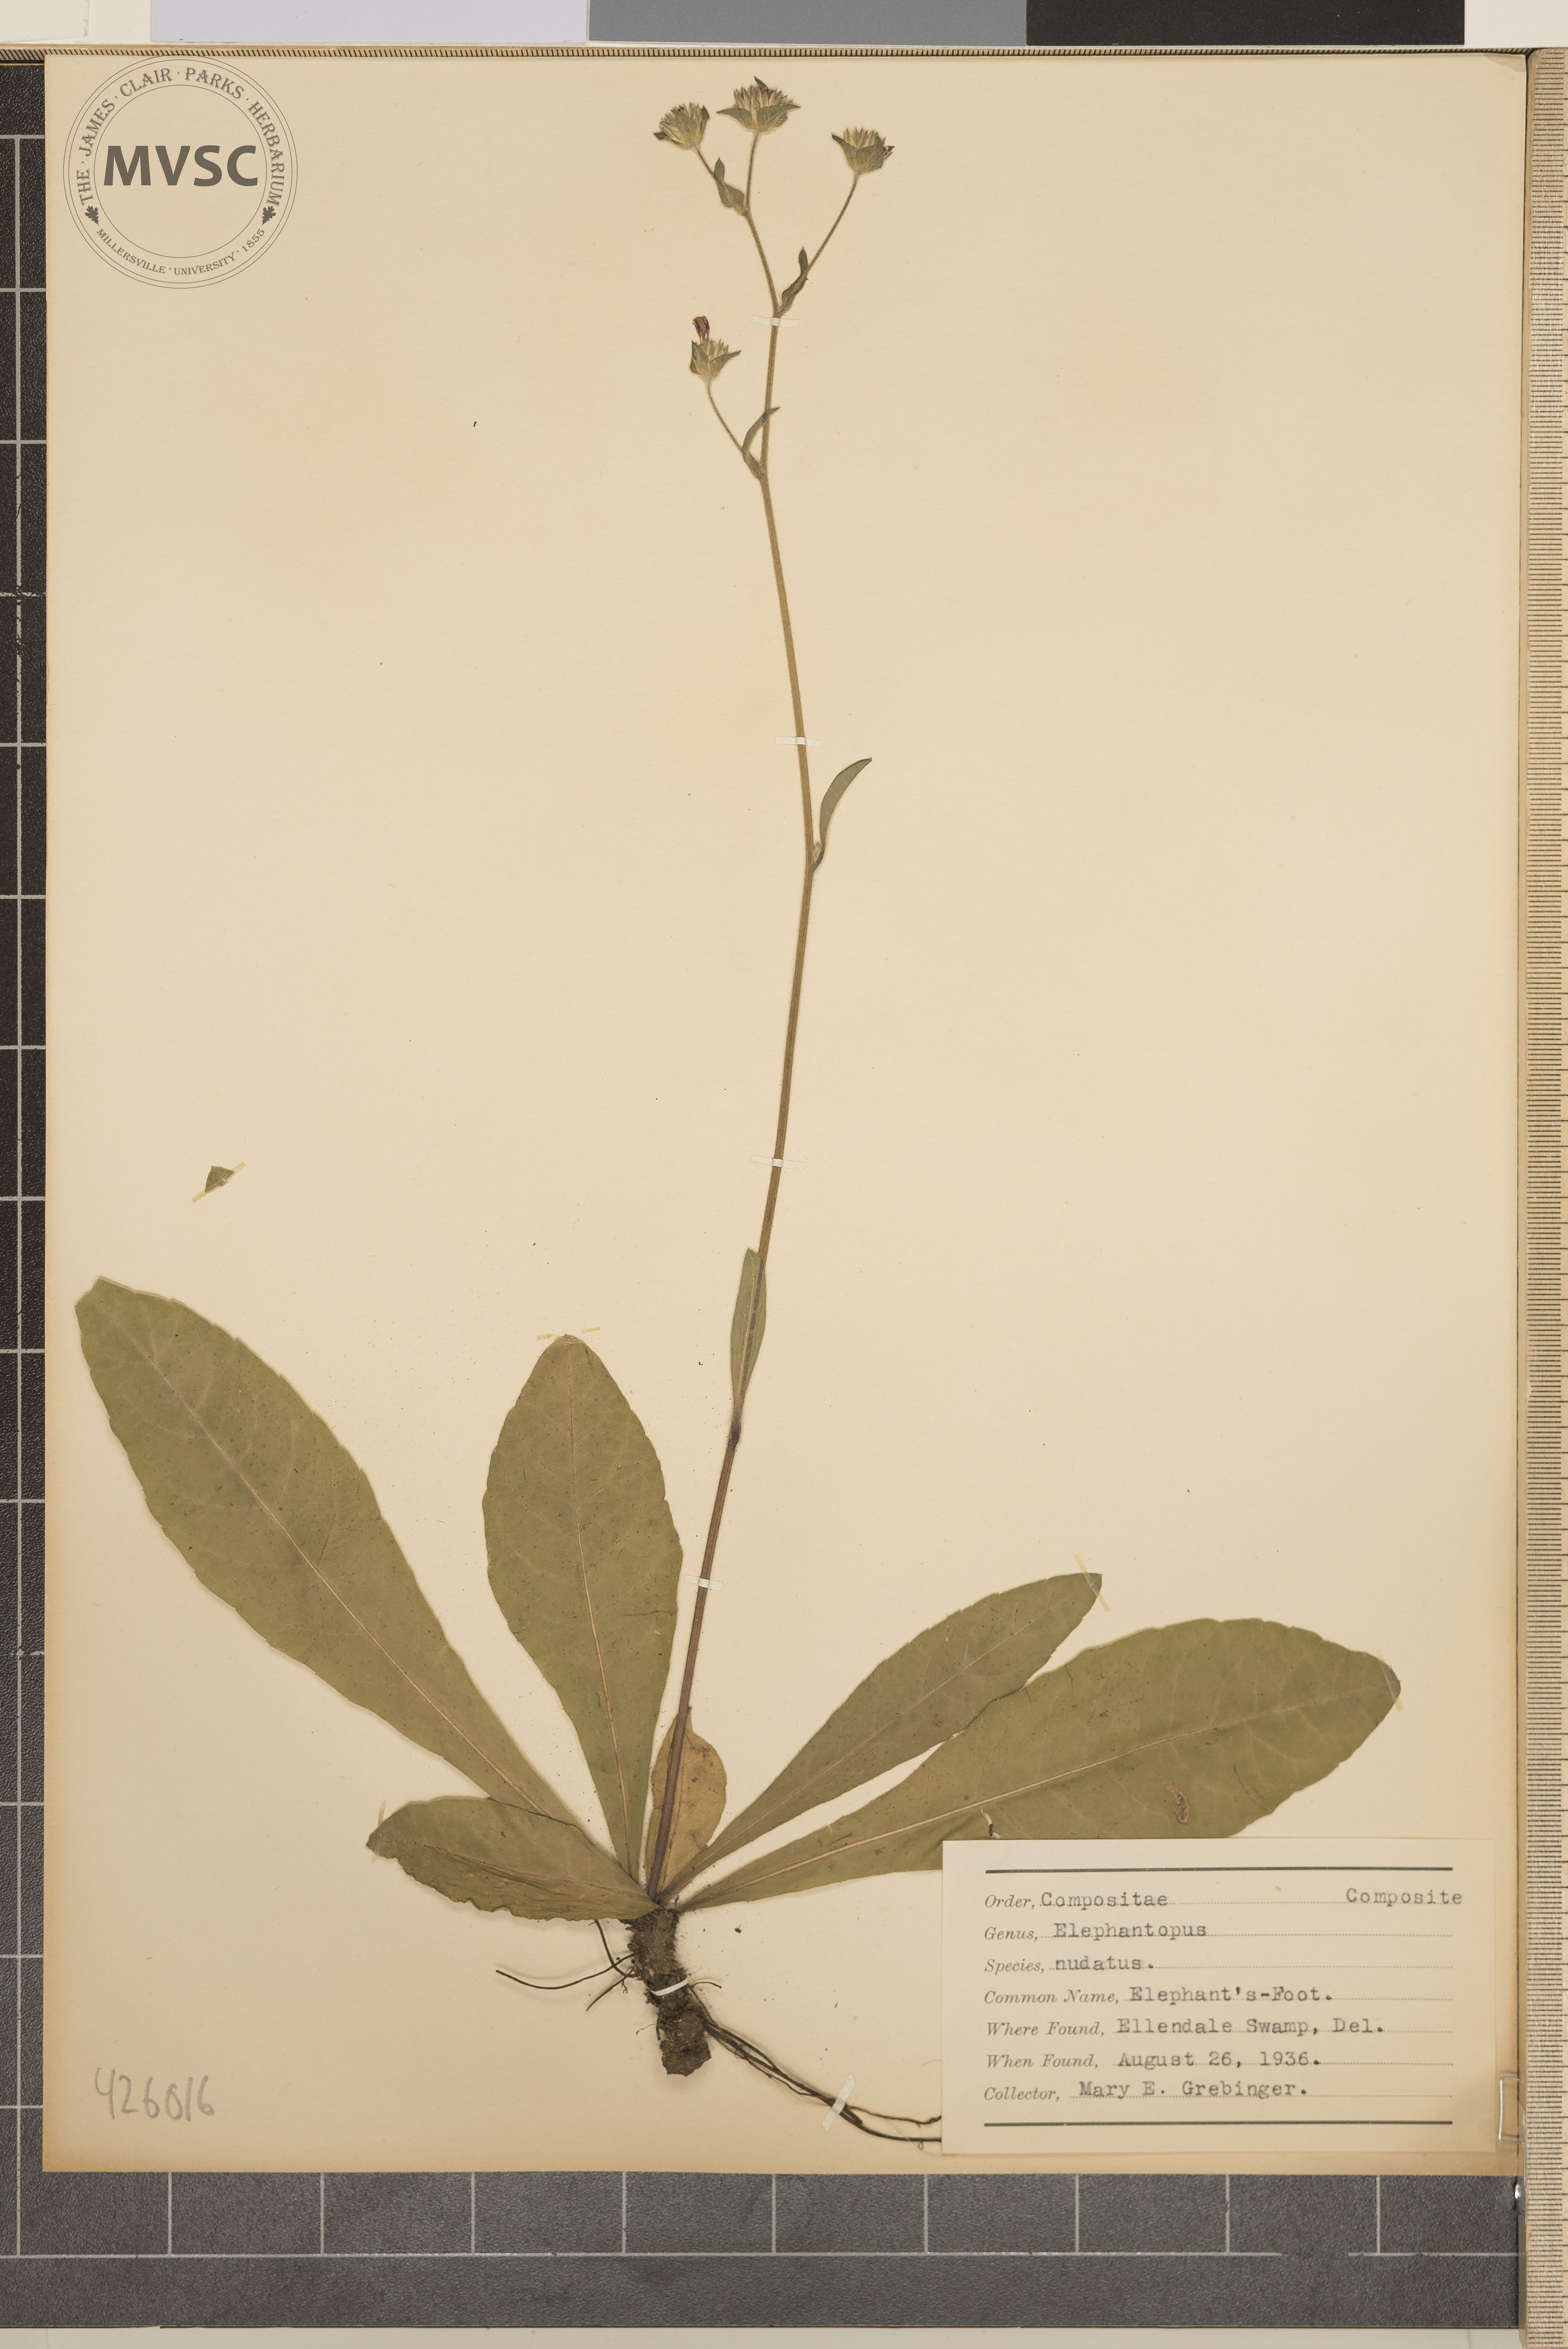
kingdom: Plantae
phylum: Tracheophyta
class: Magnoliopsida
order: Asterales
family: Asteraceae
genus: Elephantopus
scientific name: Elephantopus nudatus
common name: Elephant's-Foot
